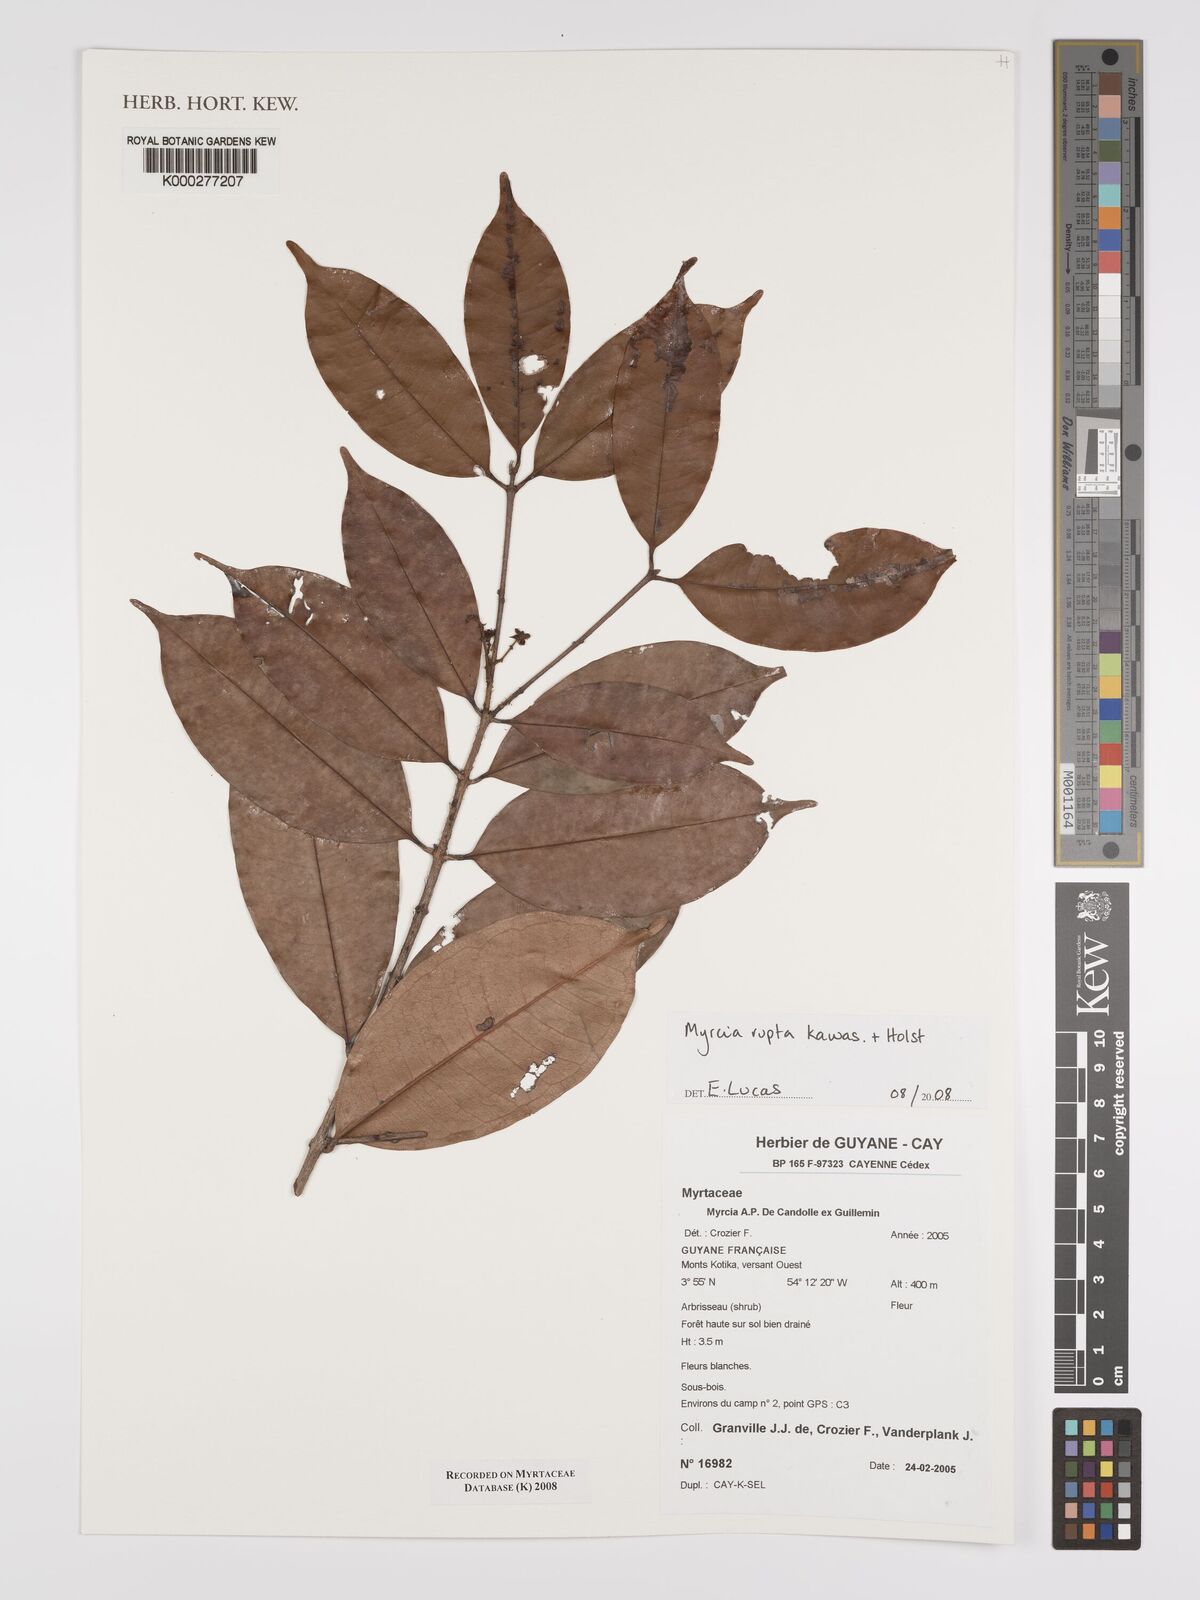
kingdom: Plantae
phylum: Tracheophyta
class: Magnoliopsida
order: Myrtales
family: Myrtaceae
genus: Myrcia
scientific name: Myrcia rupta
